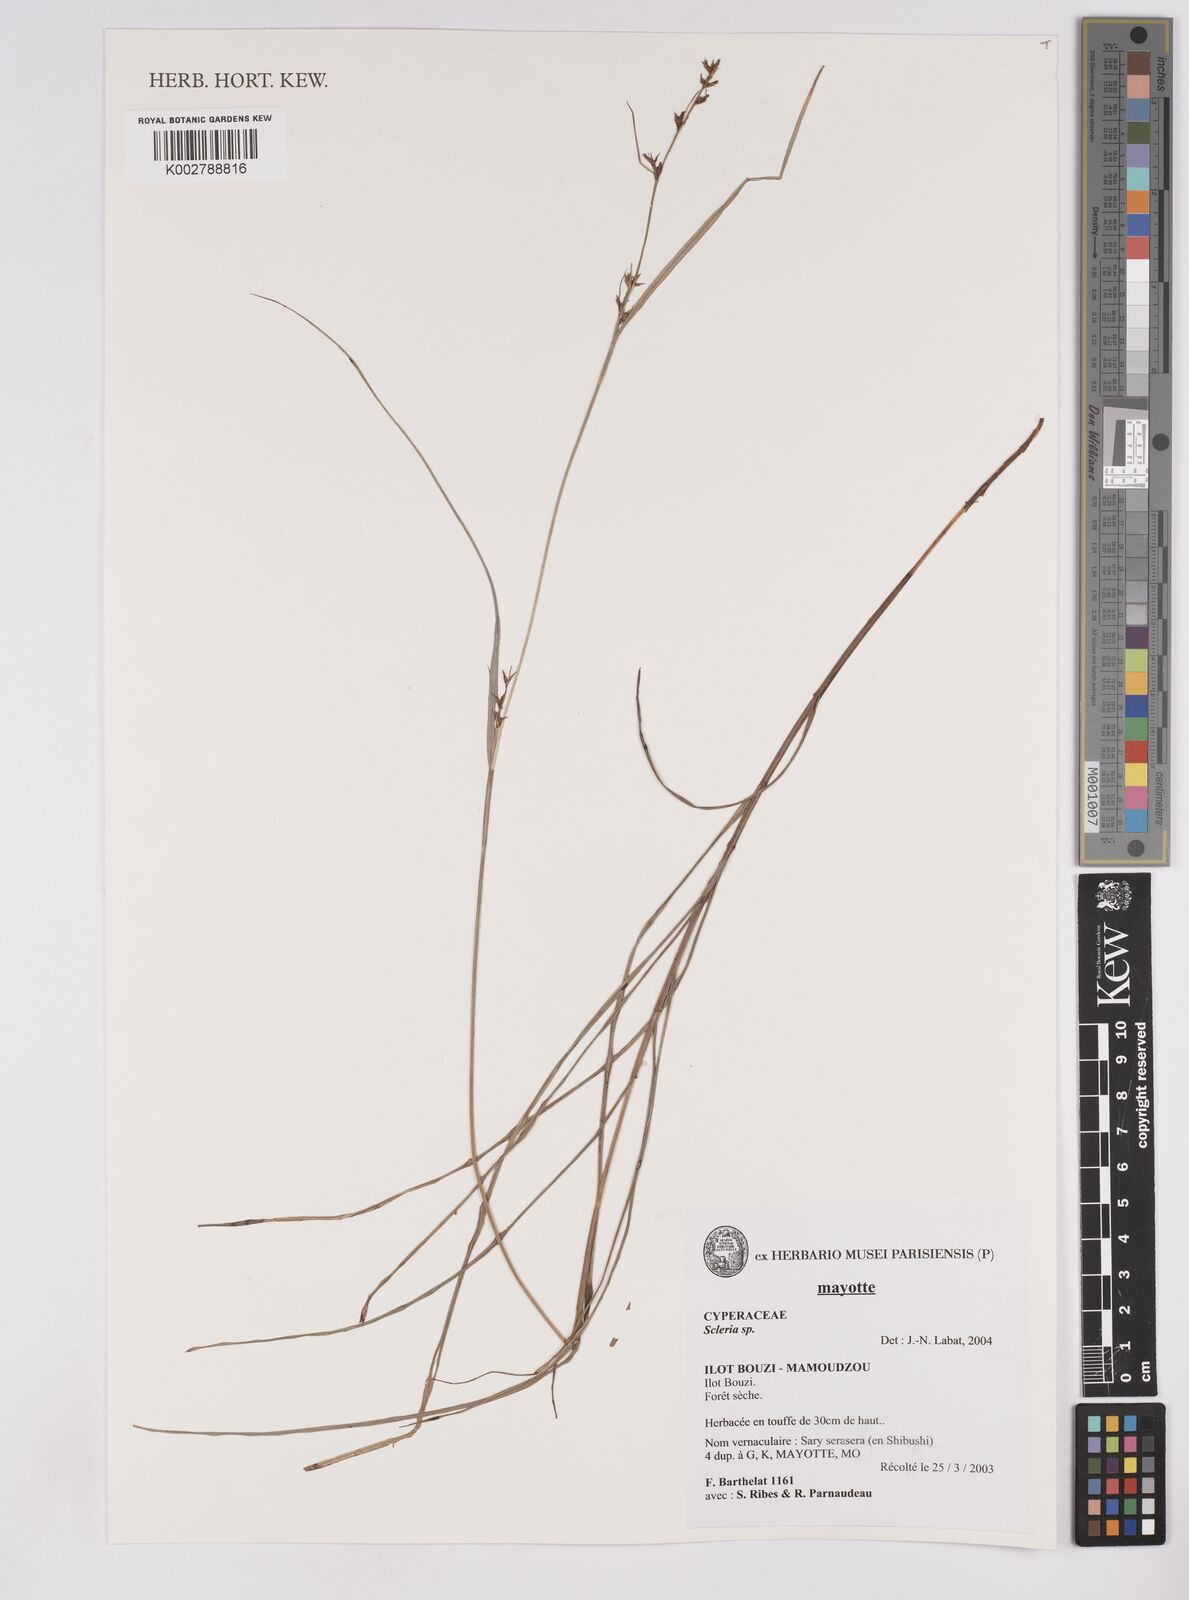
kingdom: Plantae
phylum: Tracheophyta
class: Liliopsida
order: Poales
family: Cyperaceae
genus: Scleria
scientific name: Scleria
